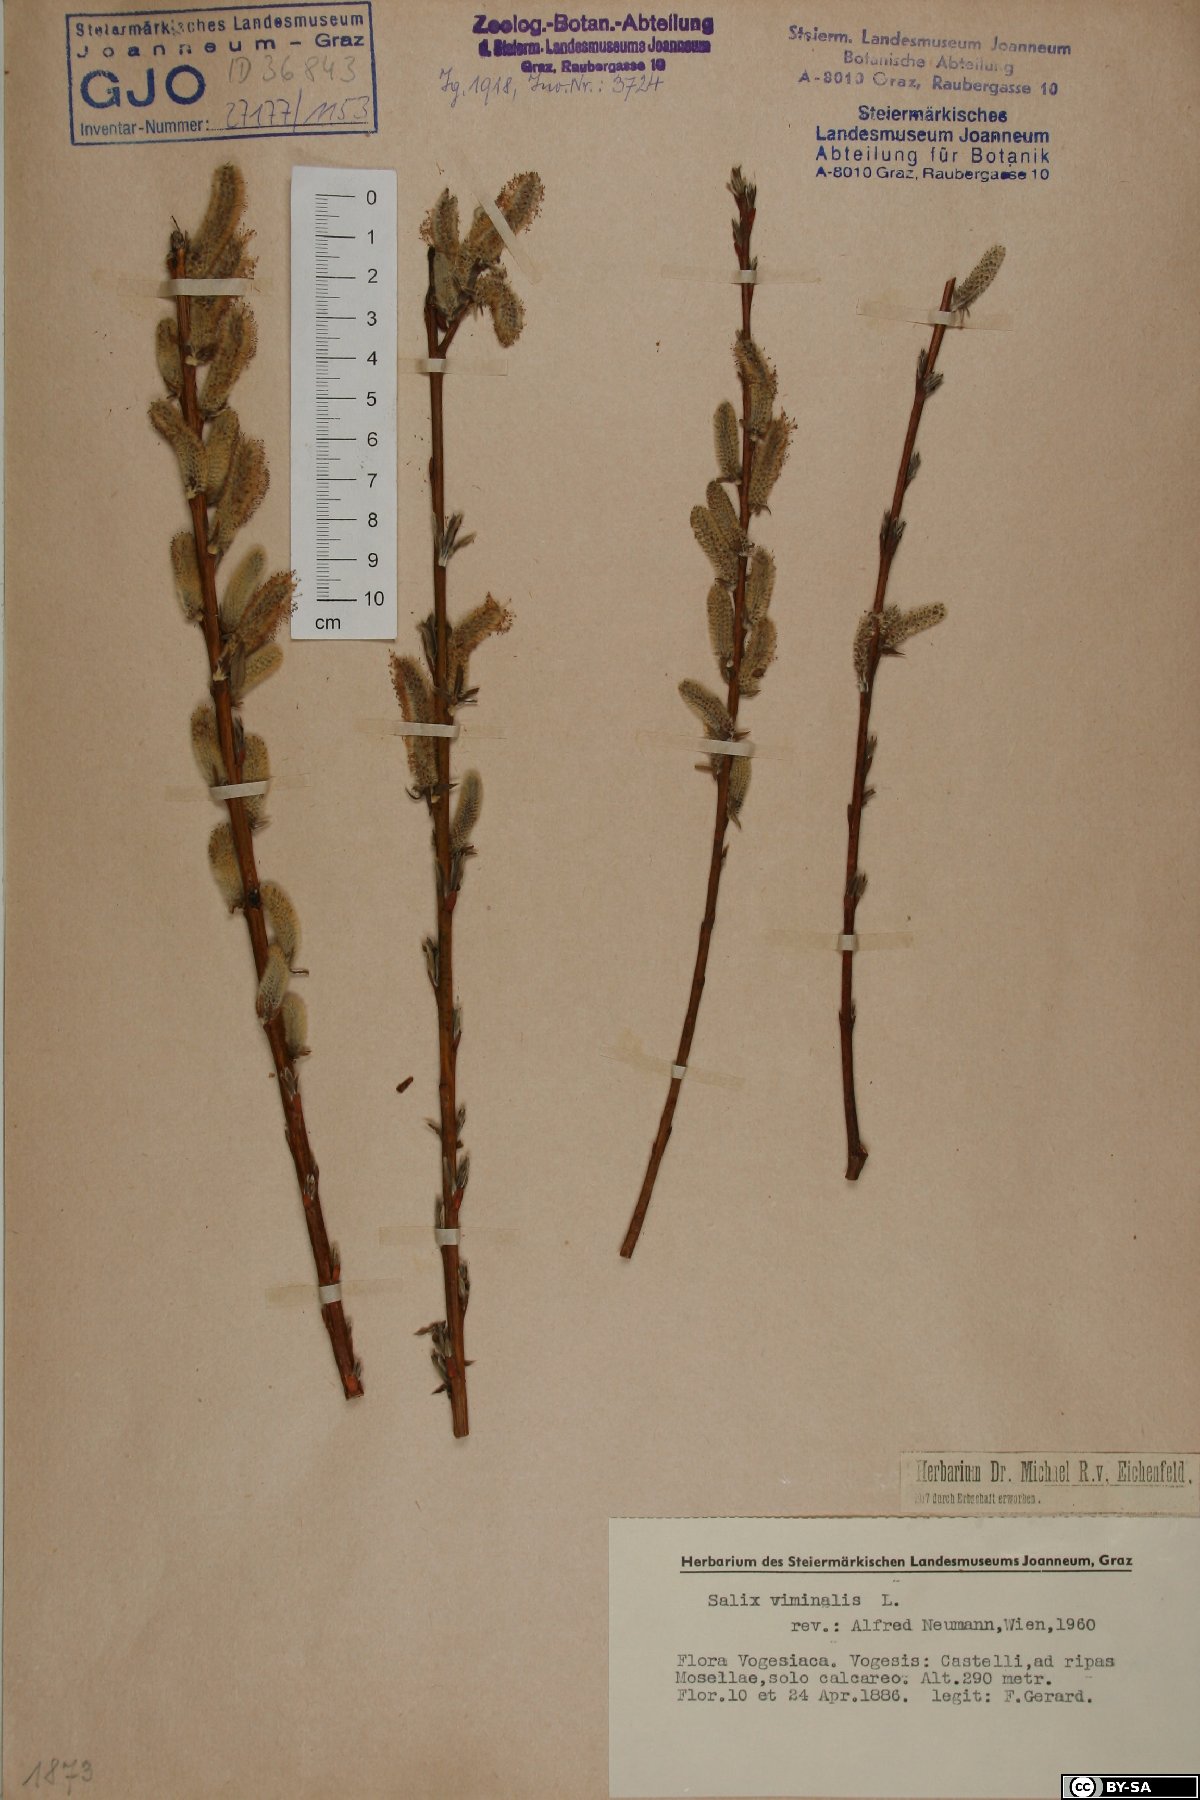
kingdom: Plantae
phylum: Tracheophyta
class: Magnoliopsida
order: Malpighiales
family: Salicaceae
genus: Salix
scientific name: Salix viminalis
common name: Osier
